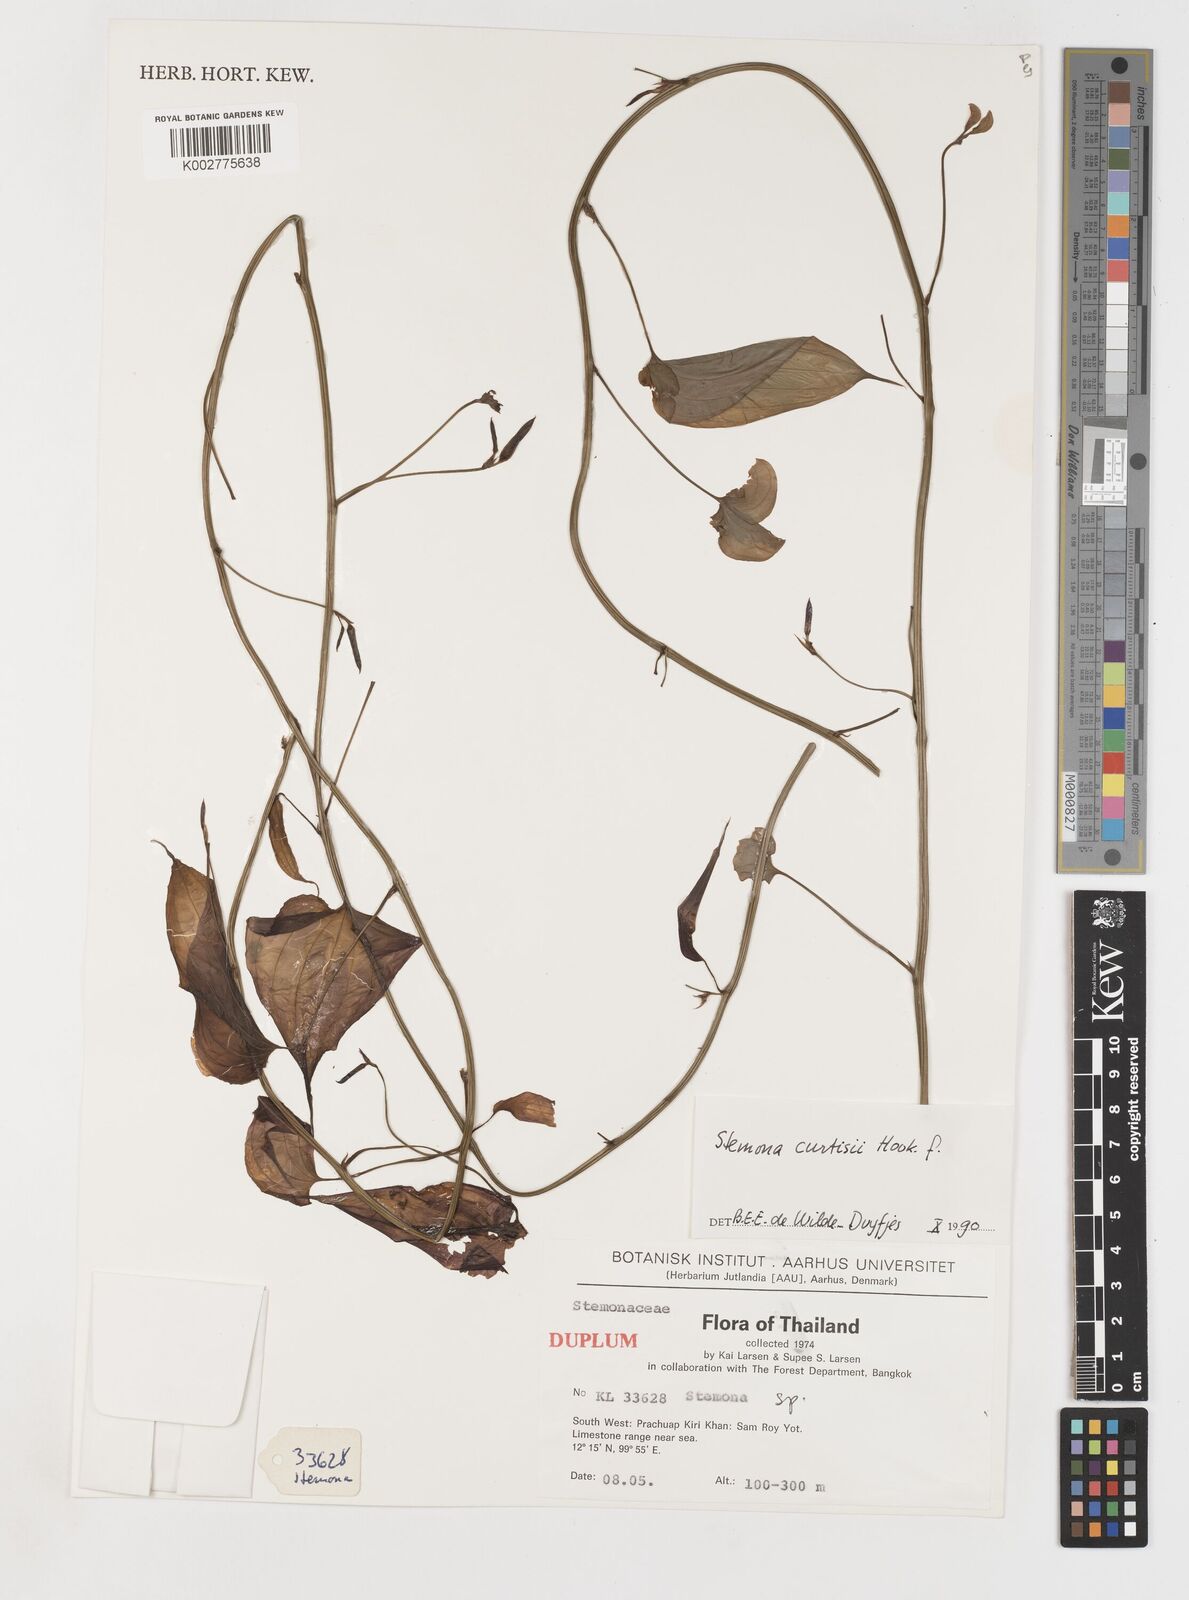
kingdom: Plantae
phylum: Tracheophyta
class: Liliopsida
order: Pandanales
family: Stemonaceae
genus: Stemona
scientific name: Stemona curtisii
